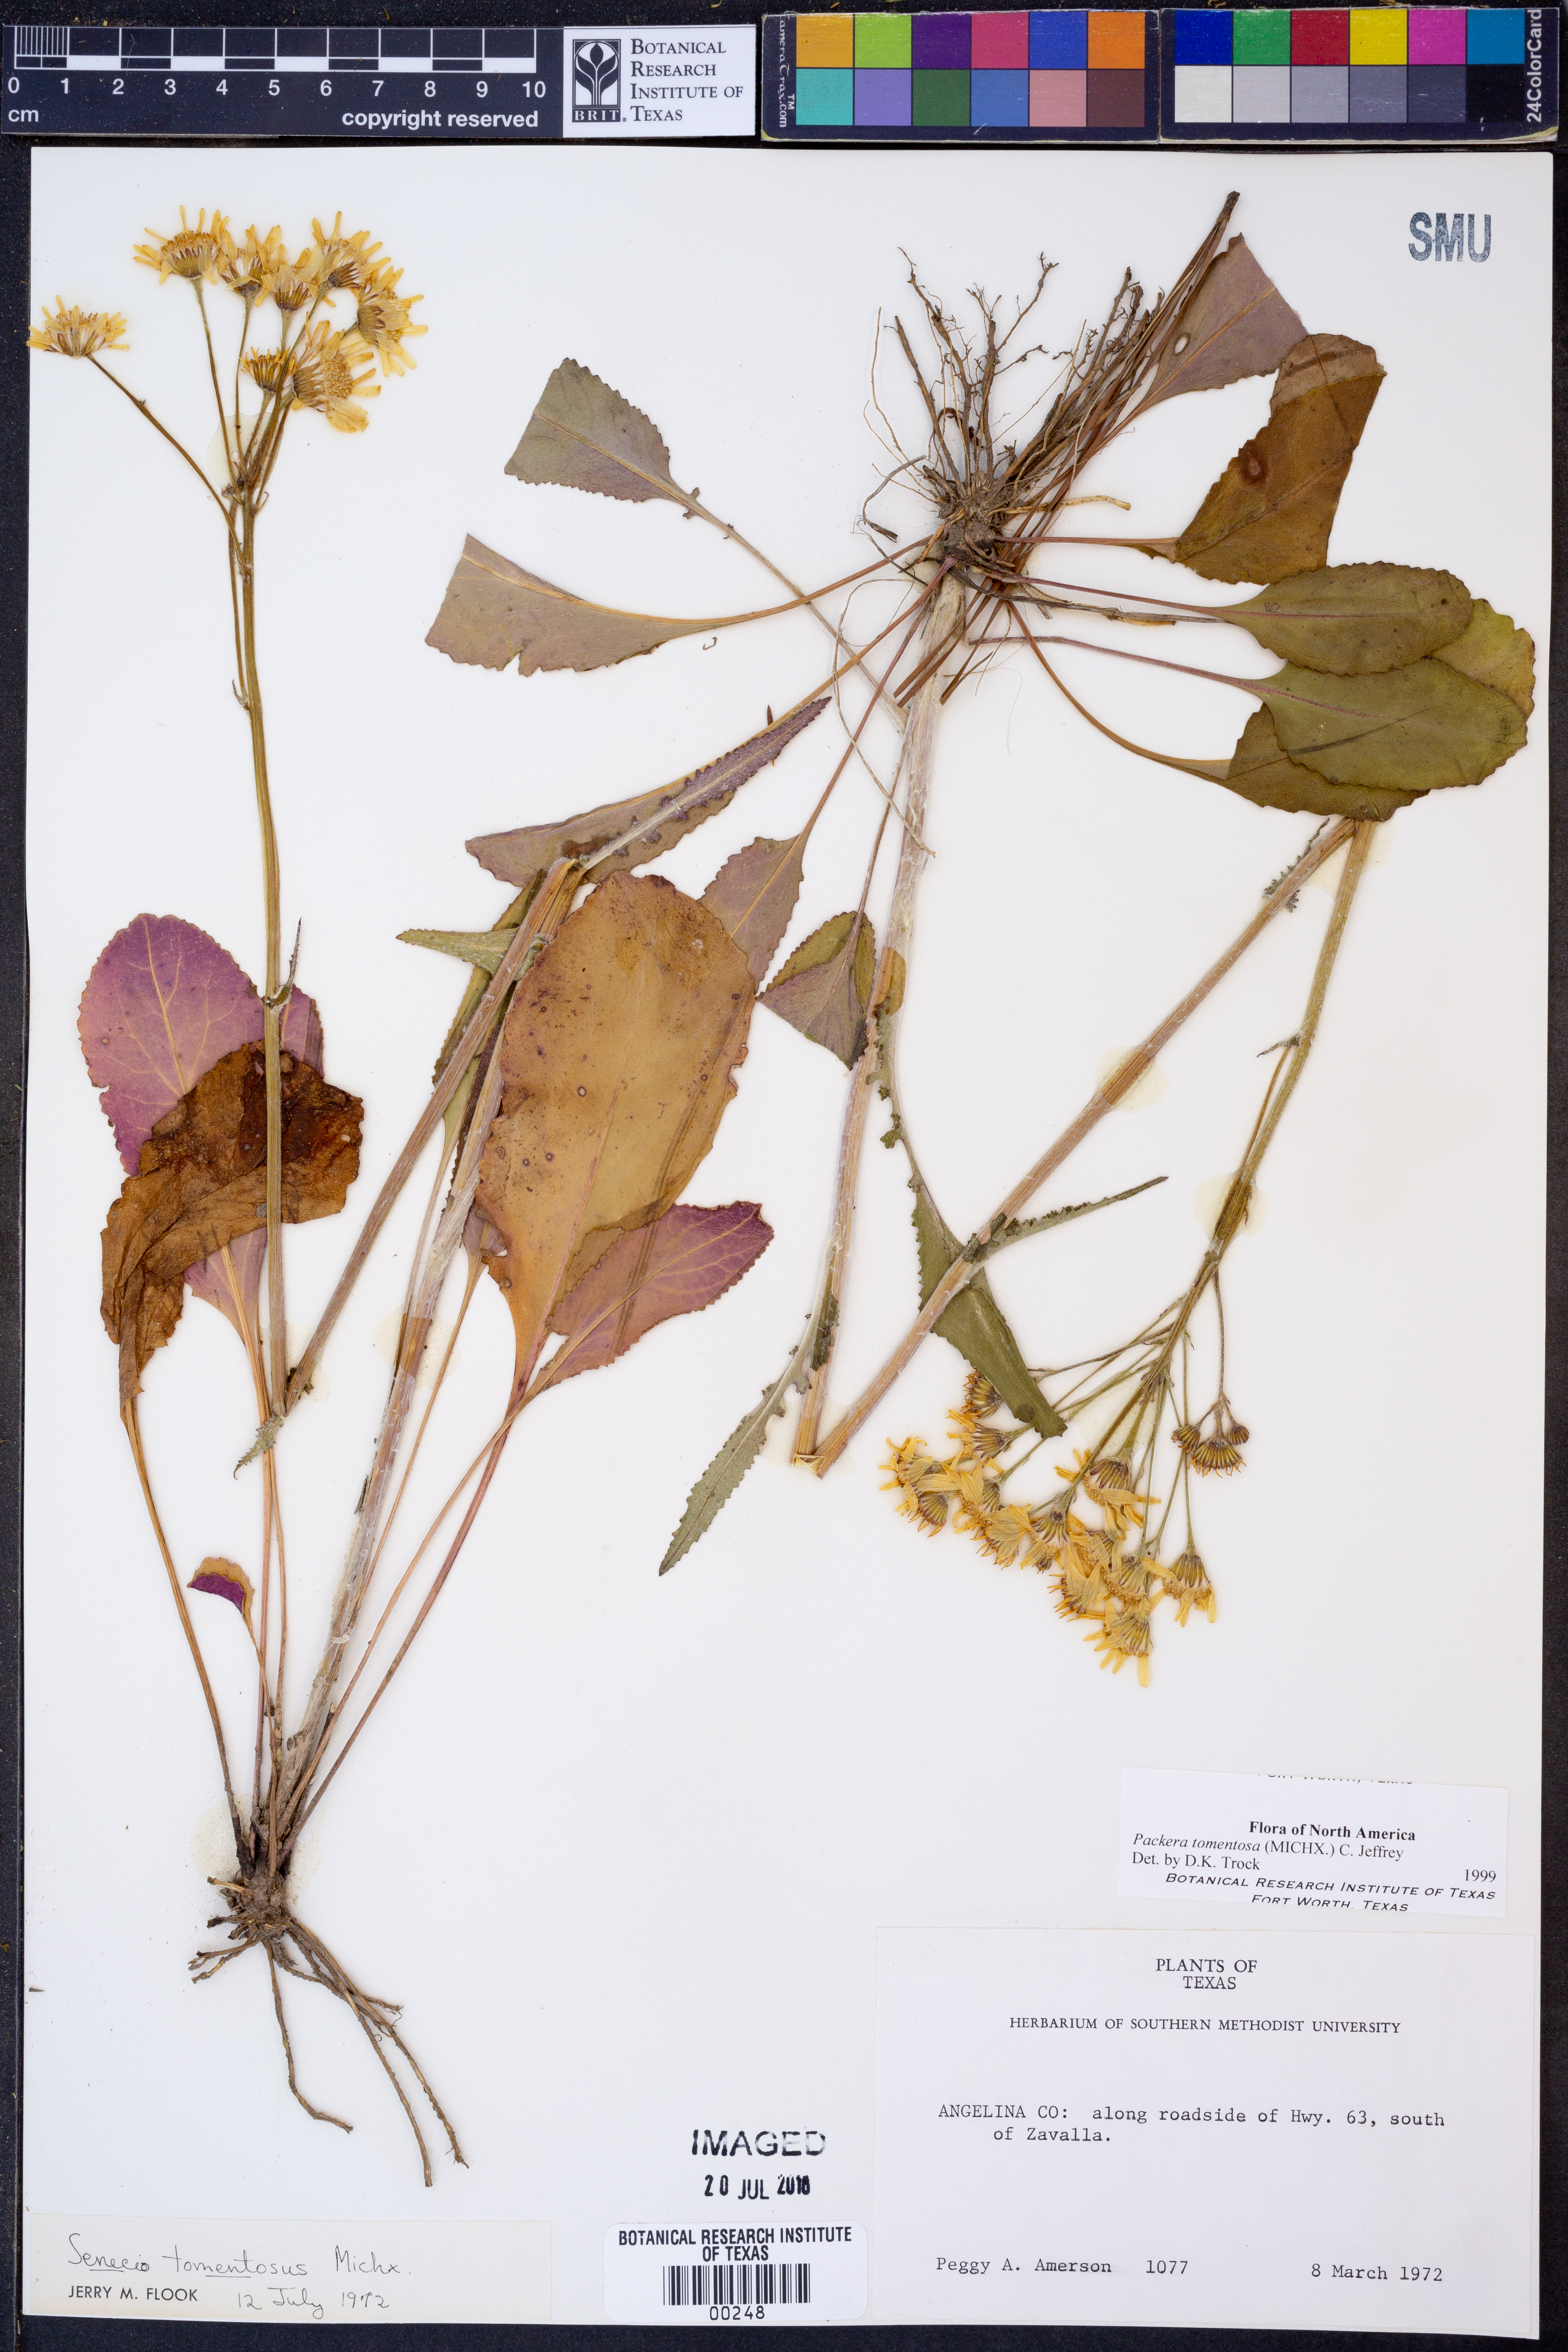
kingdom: Plantae
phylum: Tracheophyta
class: Magnoliopsida
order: Asterales
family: Asteraceae
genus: Packera
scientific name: Packera dubia
